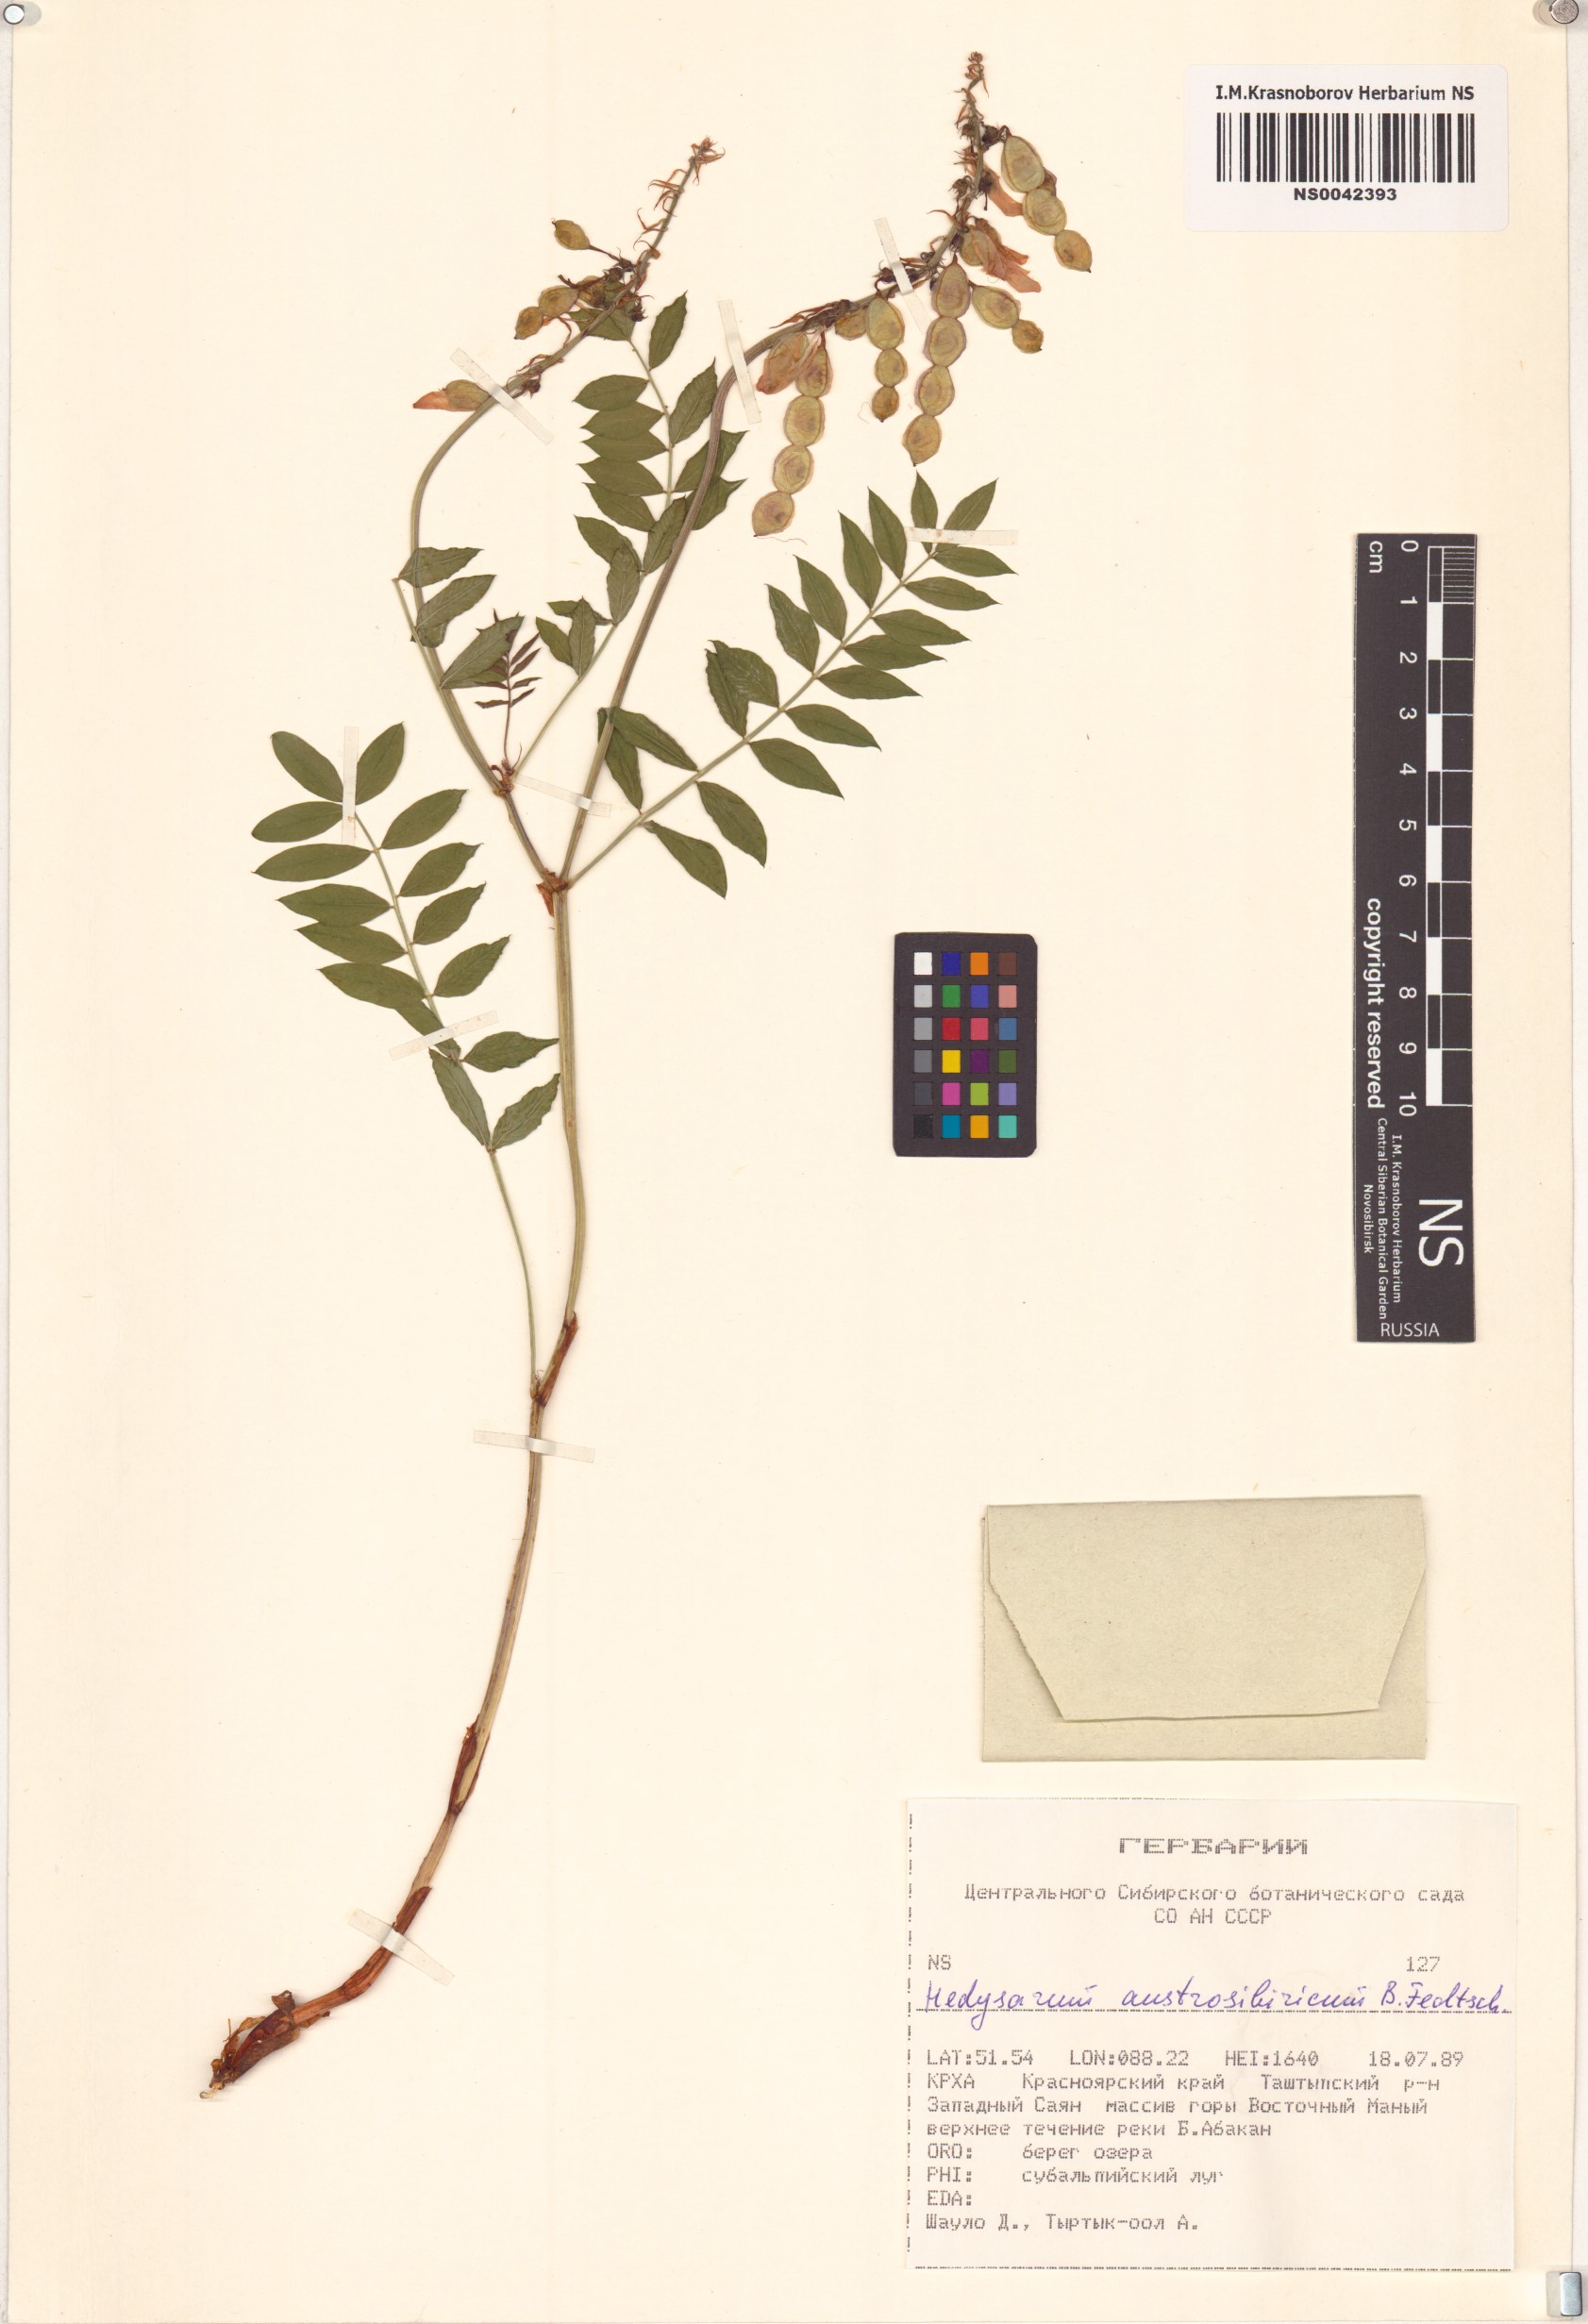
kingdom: Plantae
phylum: Tracheophyta
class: Magnoliopsida
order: Fabales
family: Fabaceae
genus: Hedysarum
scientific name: Hedysarum neglectum
